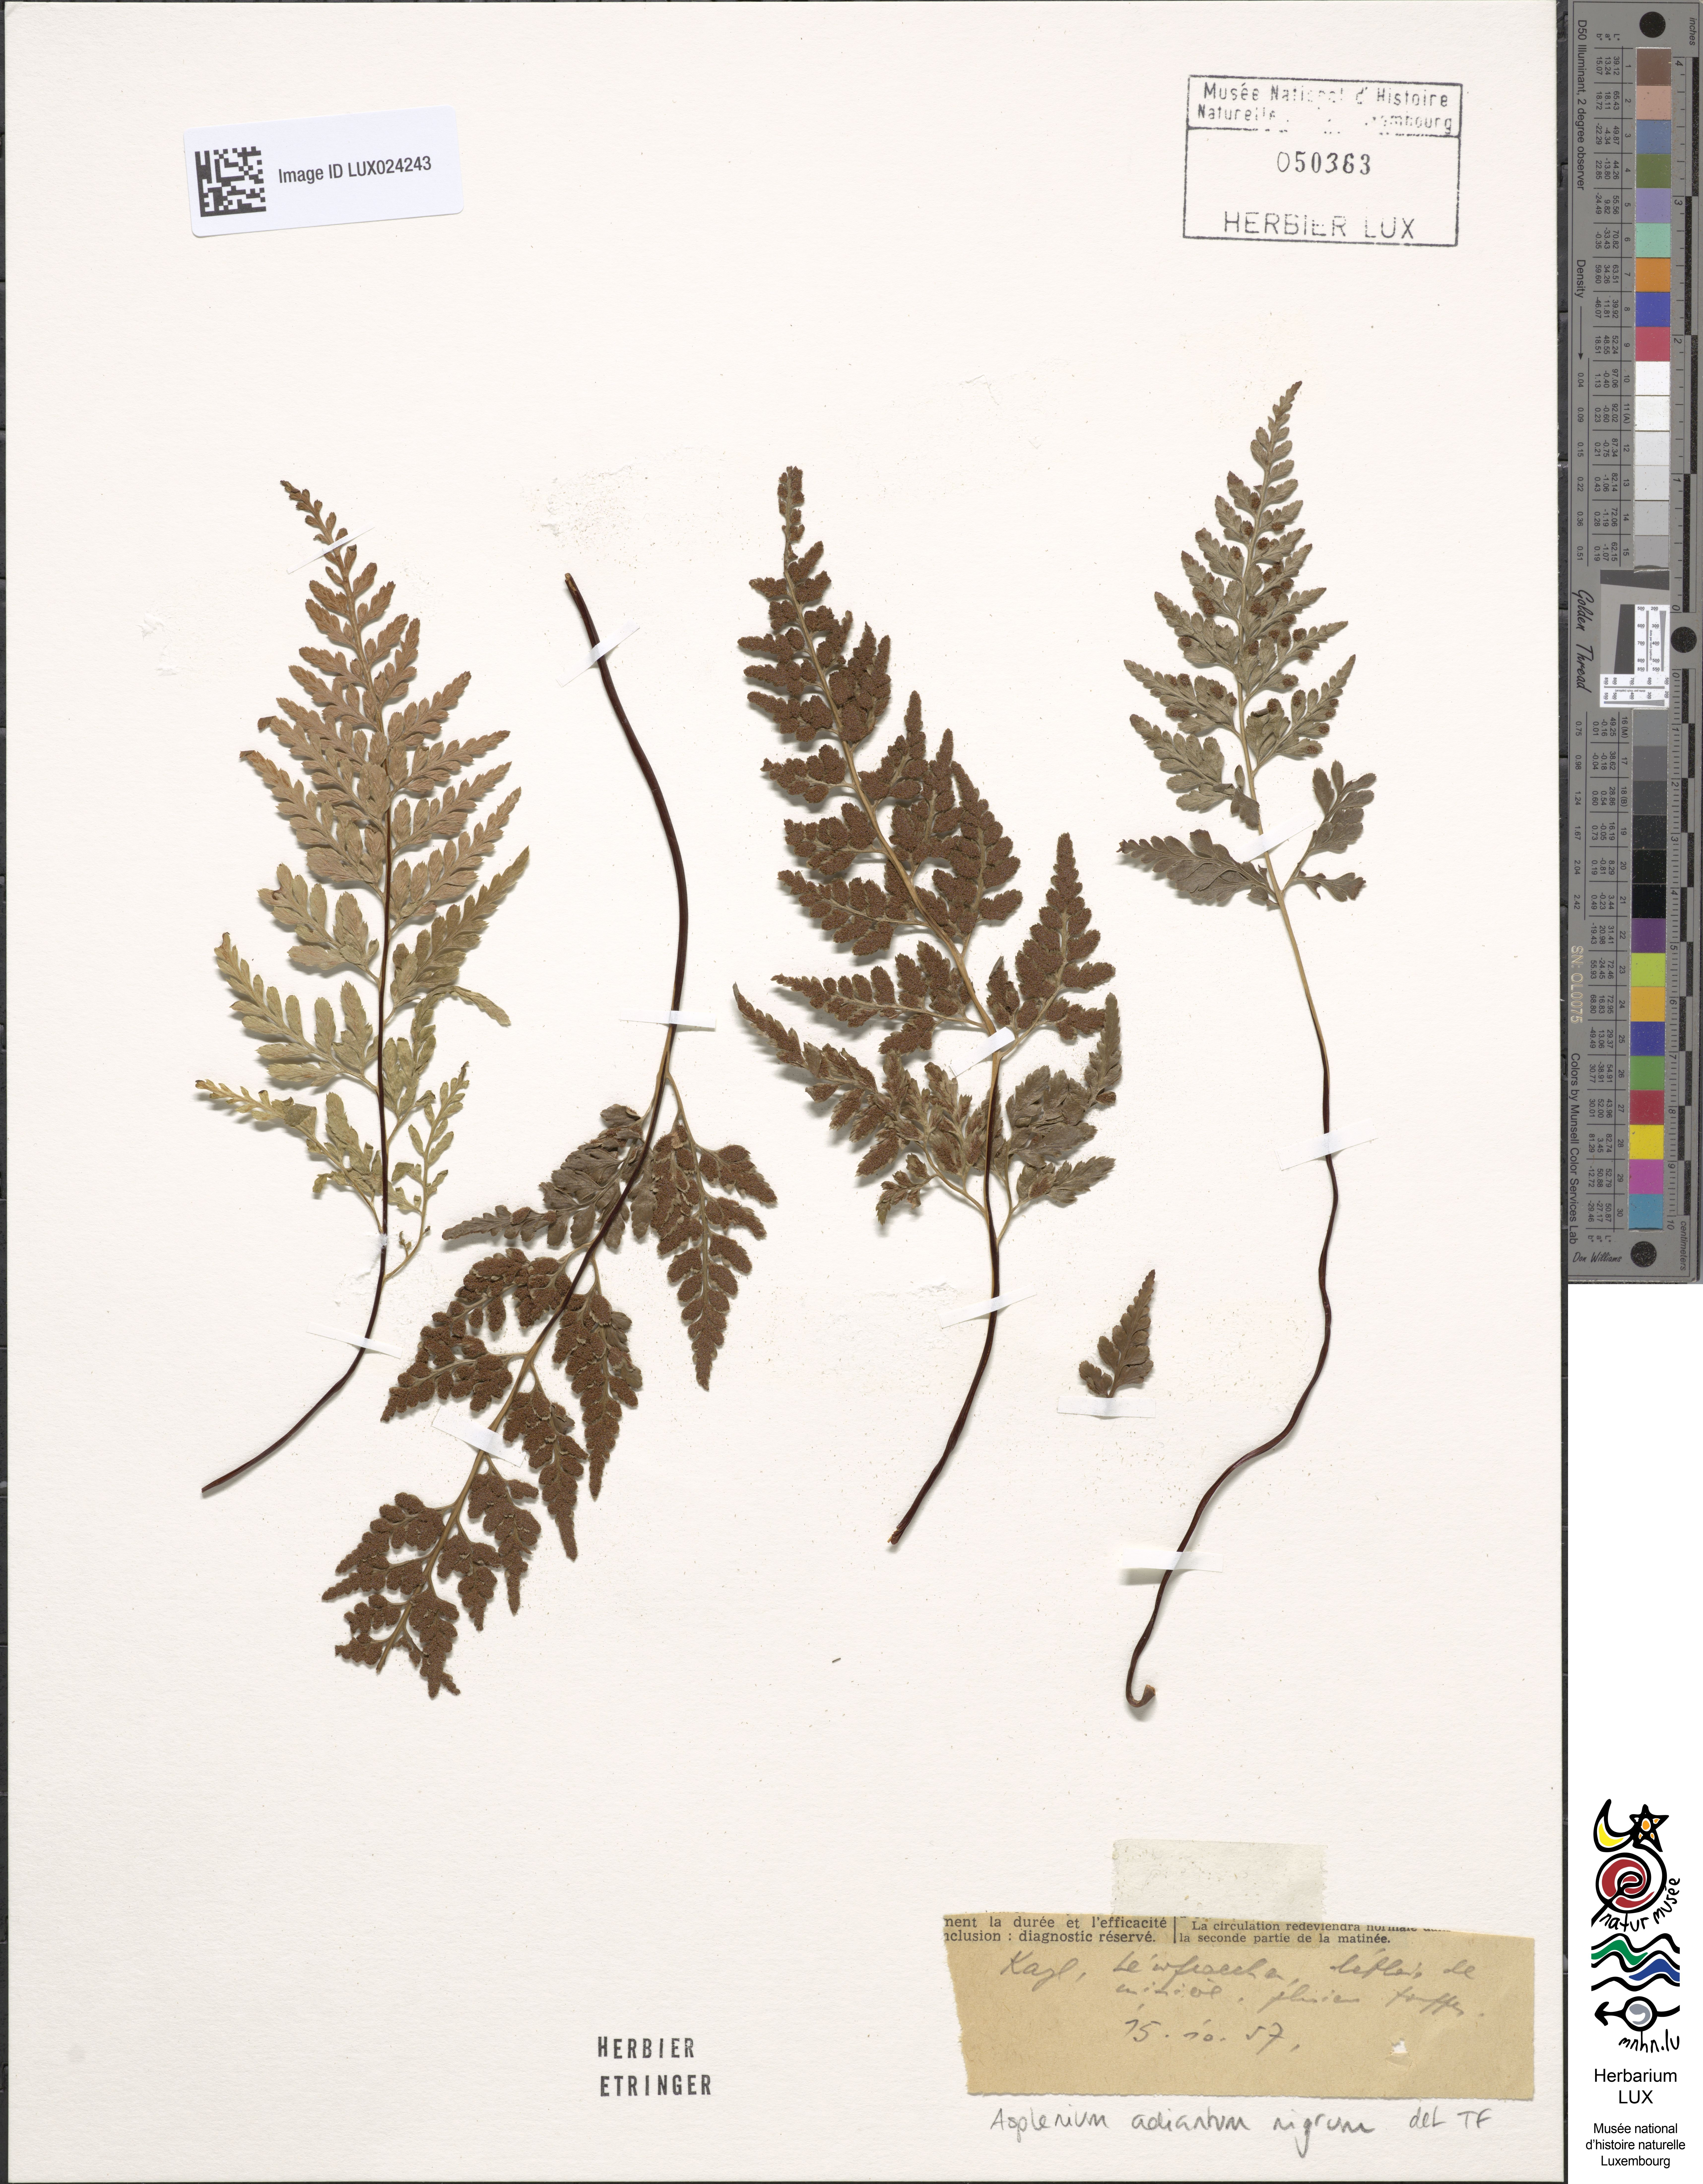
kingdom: Plantae
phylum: Tracheophyta
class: Polypodiopsida
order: Polypodiales
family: Aspleniaceae
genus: Asplenium
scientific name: Asplenium adiantum-nigrum
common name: Black spleenwort
